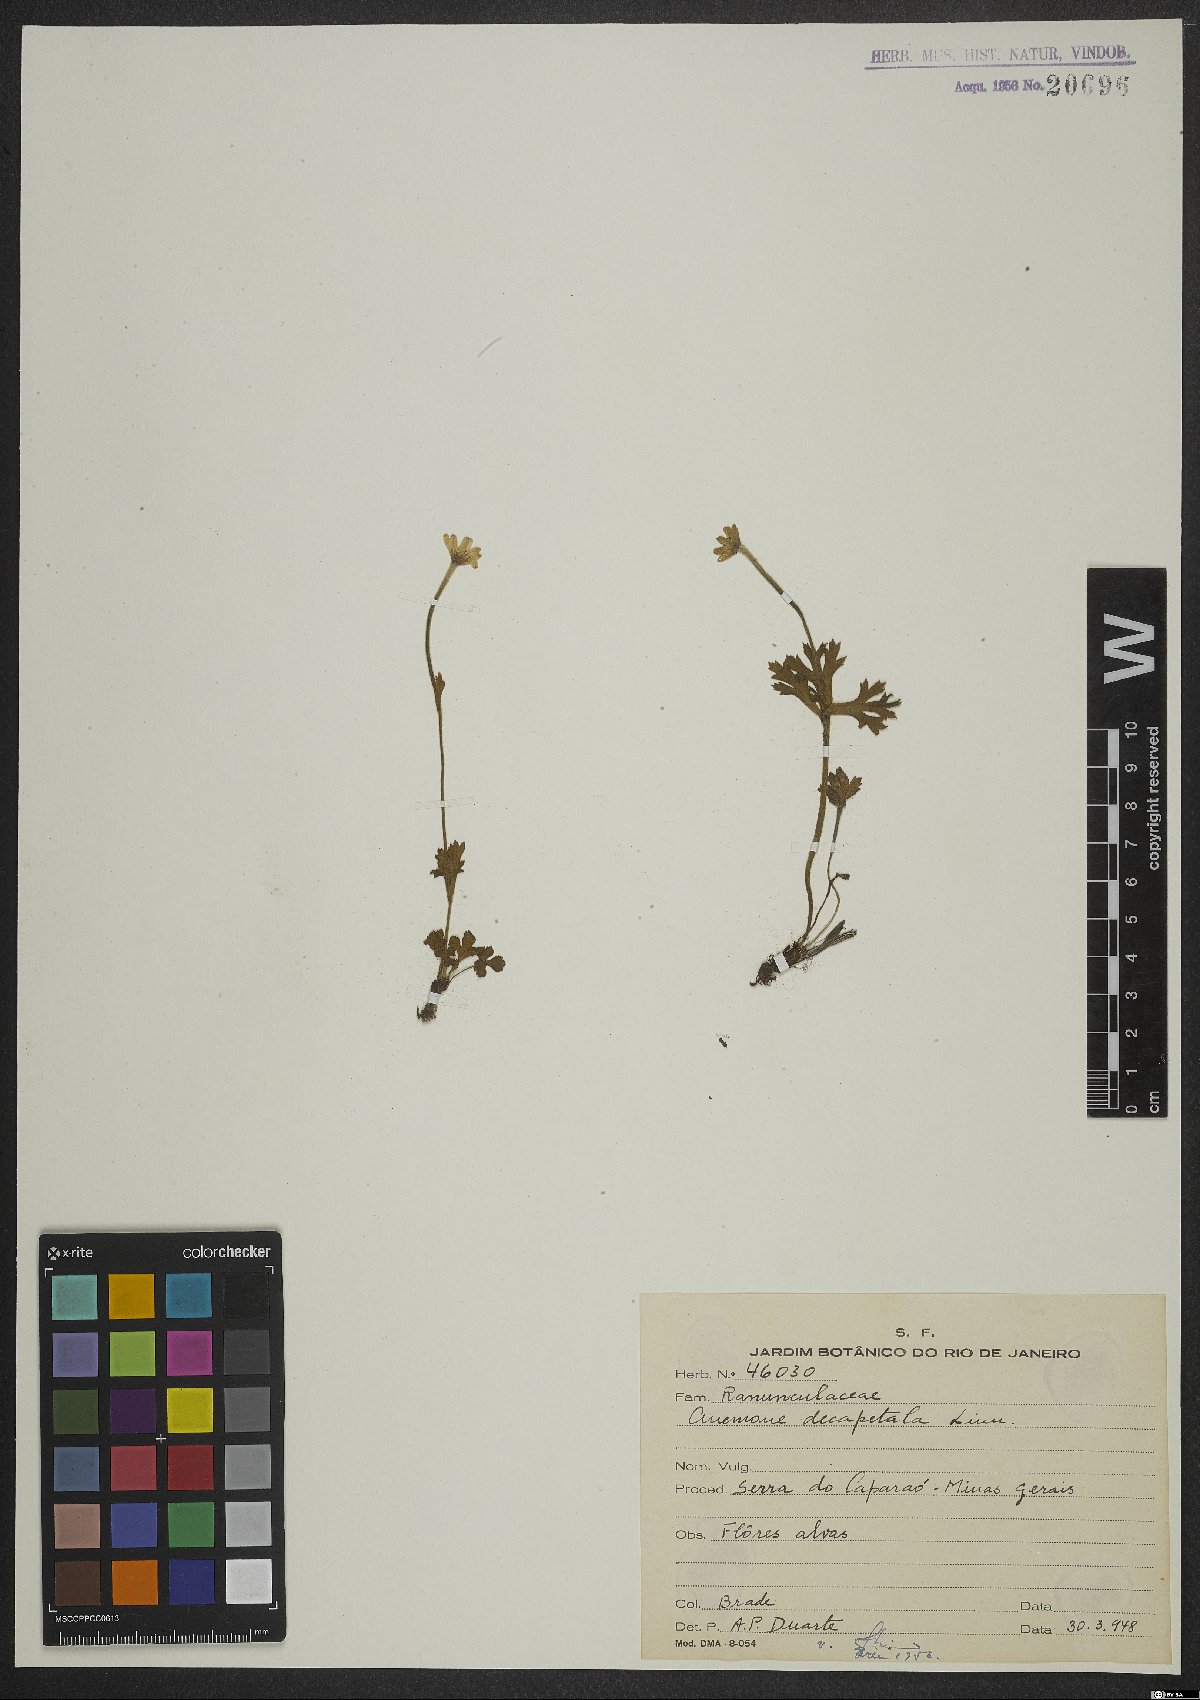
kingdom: Plantae
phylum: Tracheophyta
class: Magnoliopsida
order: Ranunculales
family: Ranunculaceae
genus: Anemone
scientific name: Anemone decapetala
